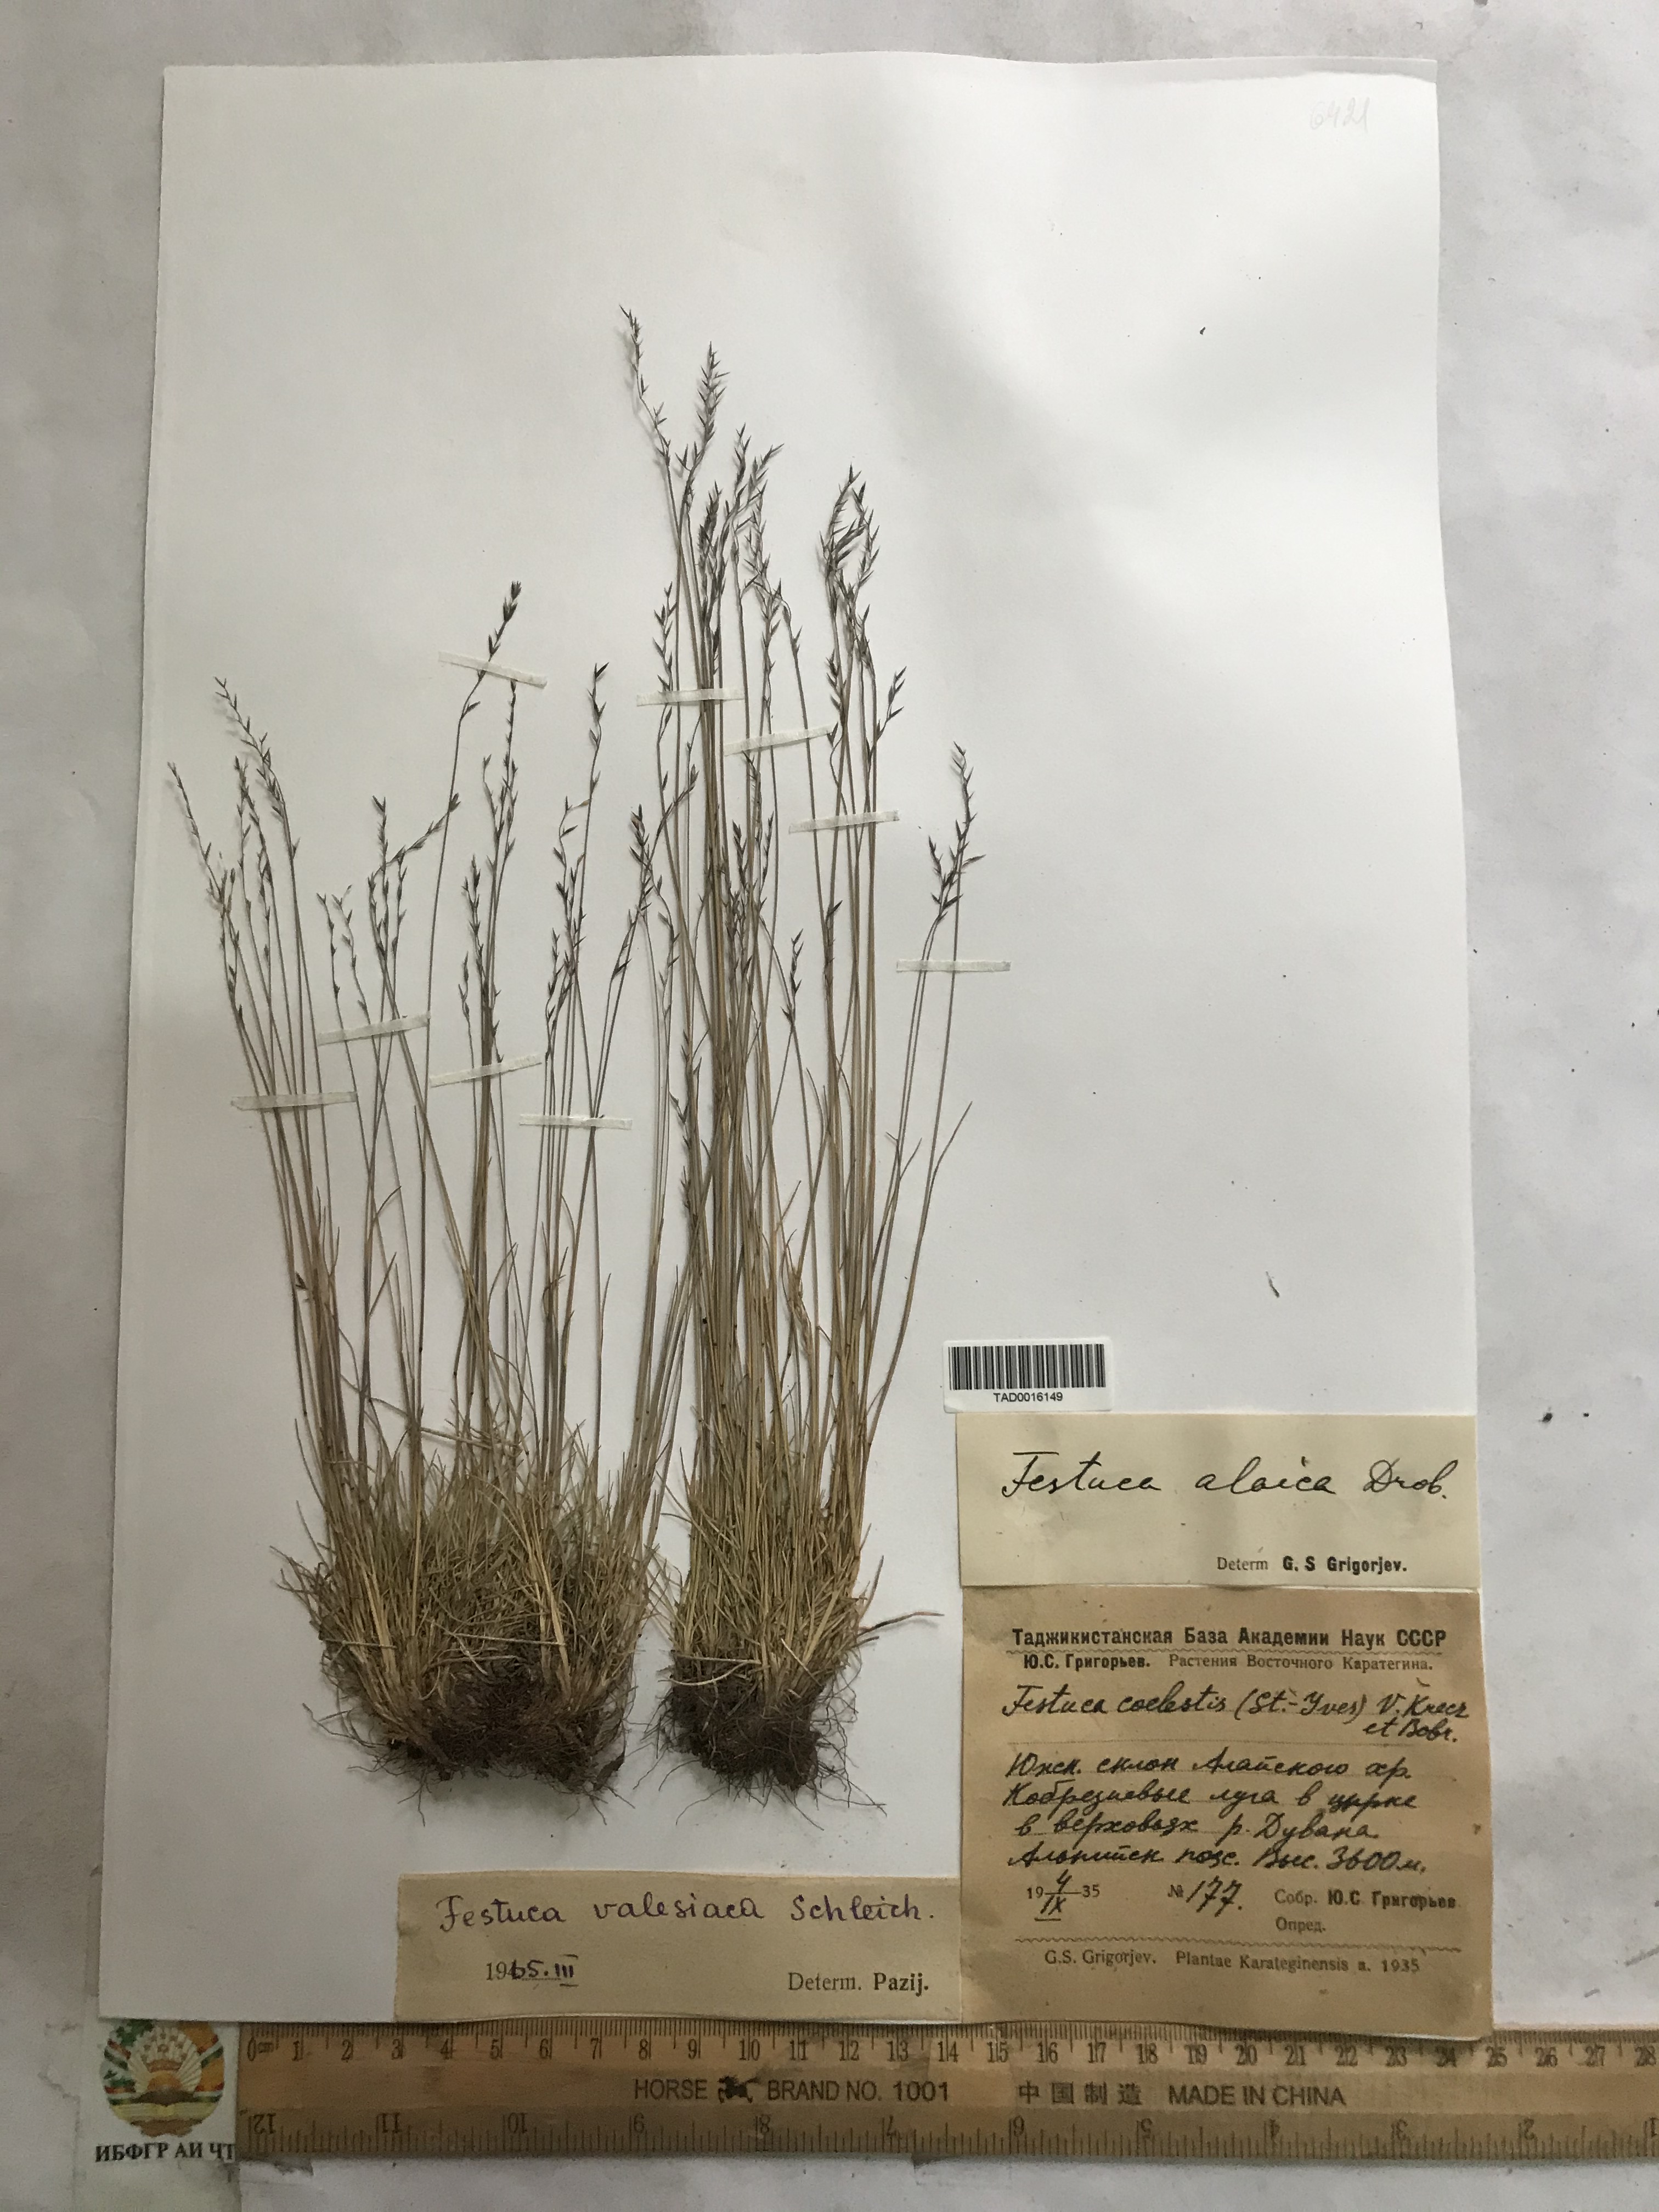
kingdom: Plantae
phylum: Tracheophyta
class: Liliopsida
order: Poales
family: Poaceae
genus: Festuca
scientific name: Festuca valesiaca
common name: Volga fescue
